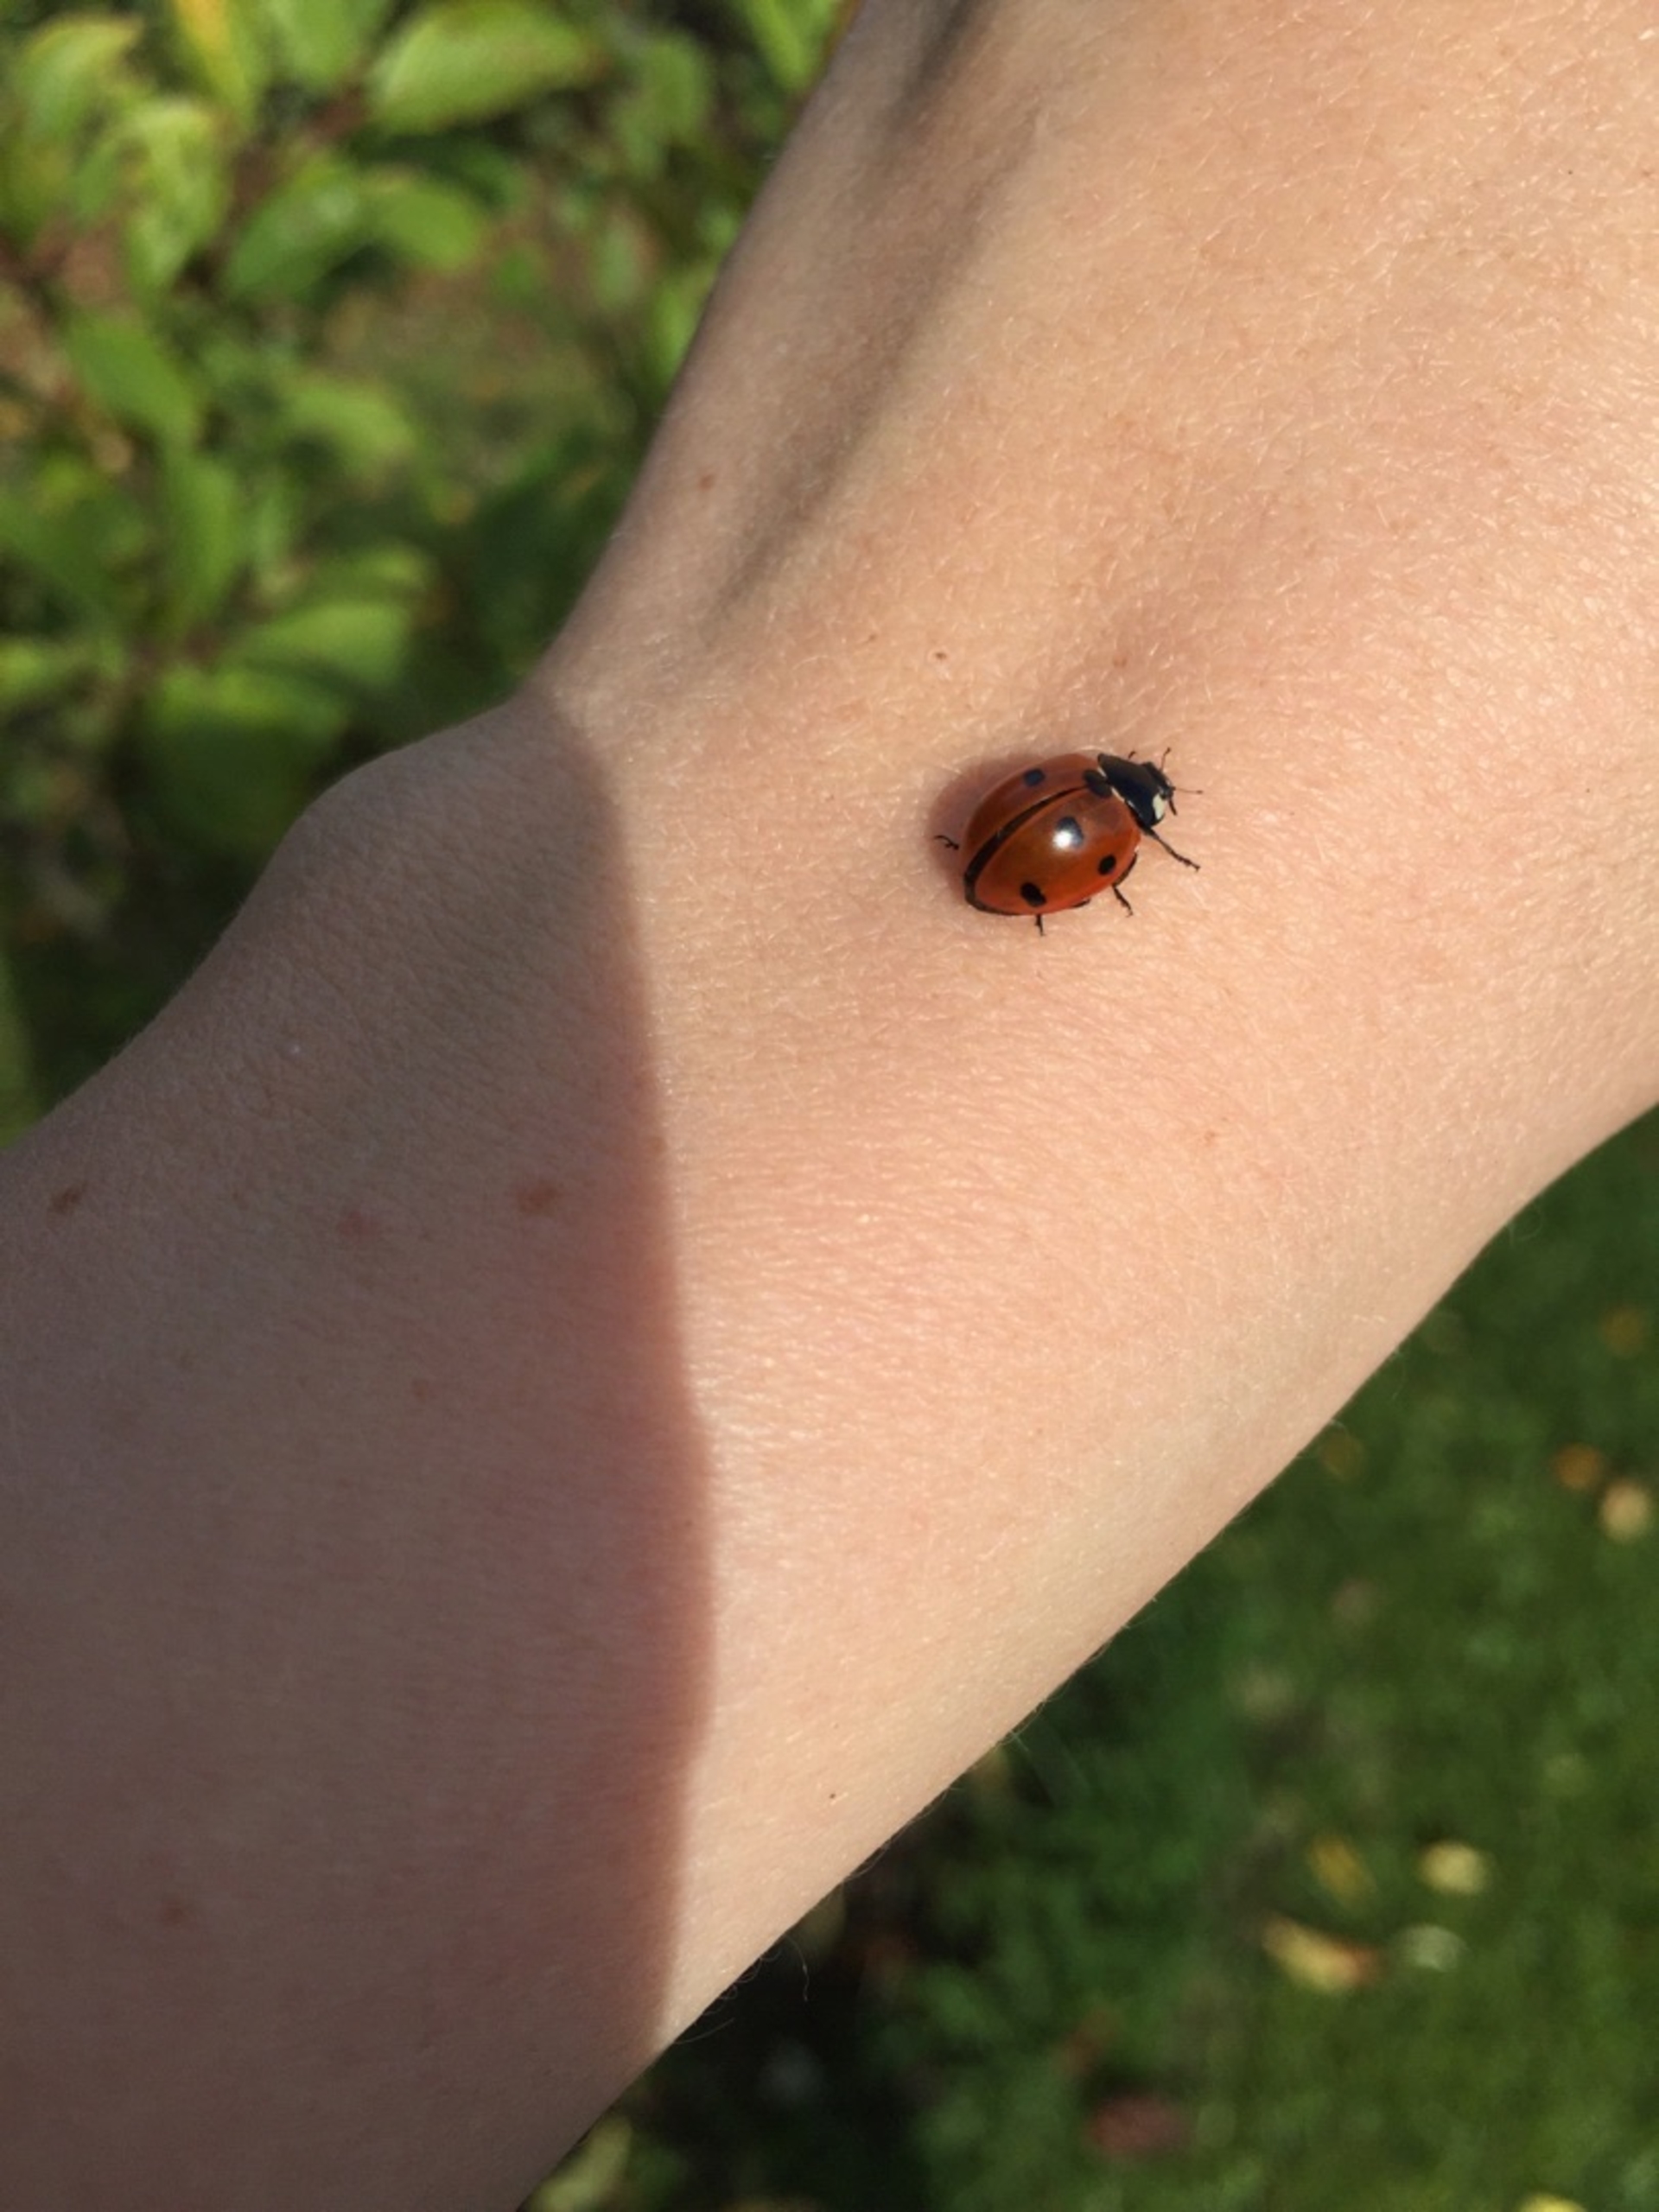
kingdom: Animalia
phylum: Arthropoda
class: Insecta
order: Coleoptera
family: Coccinellidae
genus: Coccinella
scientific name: Coccinella septempunctata
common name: Syvplettet mariehøne
